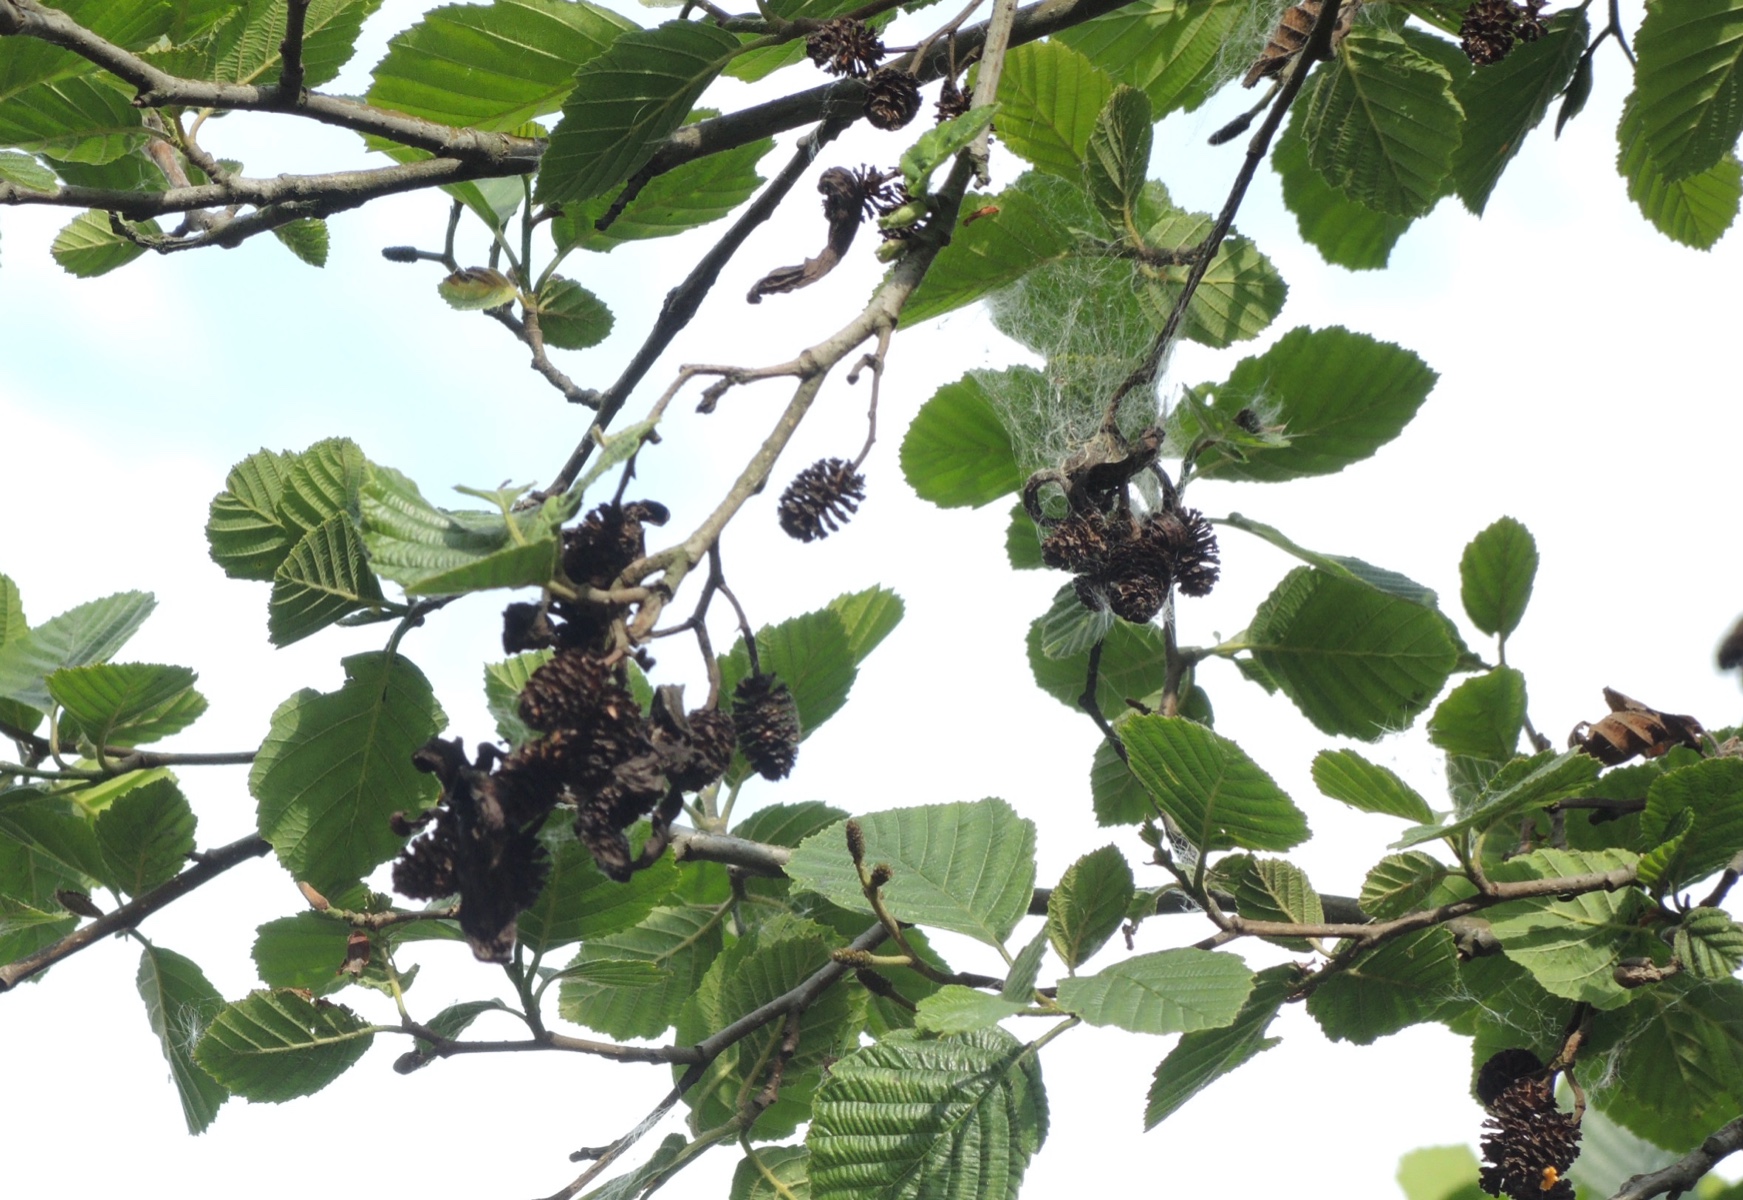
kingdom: Fungi
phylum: Ascomycota
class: Taphrinomycetes
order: Taphrinales
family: Taphrinaceae
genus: Taphrina
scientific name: Taphrina alni
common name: Alder tongue
